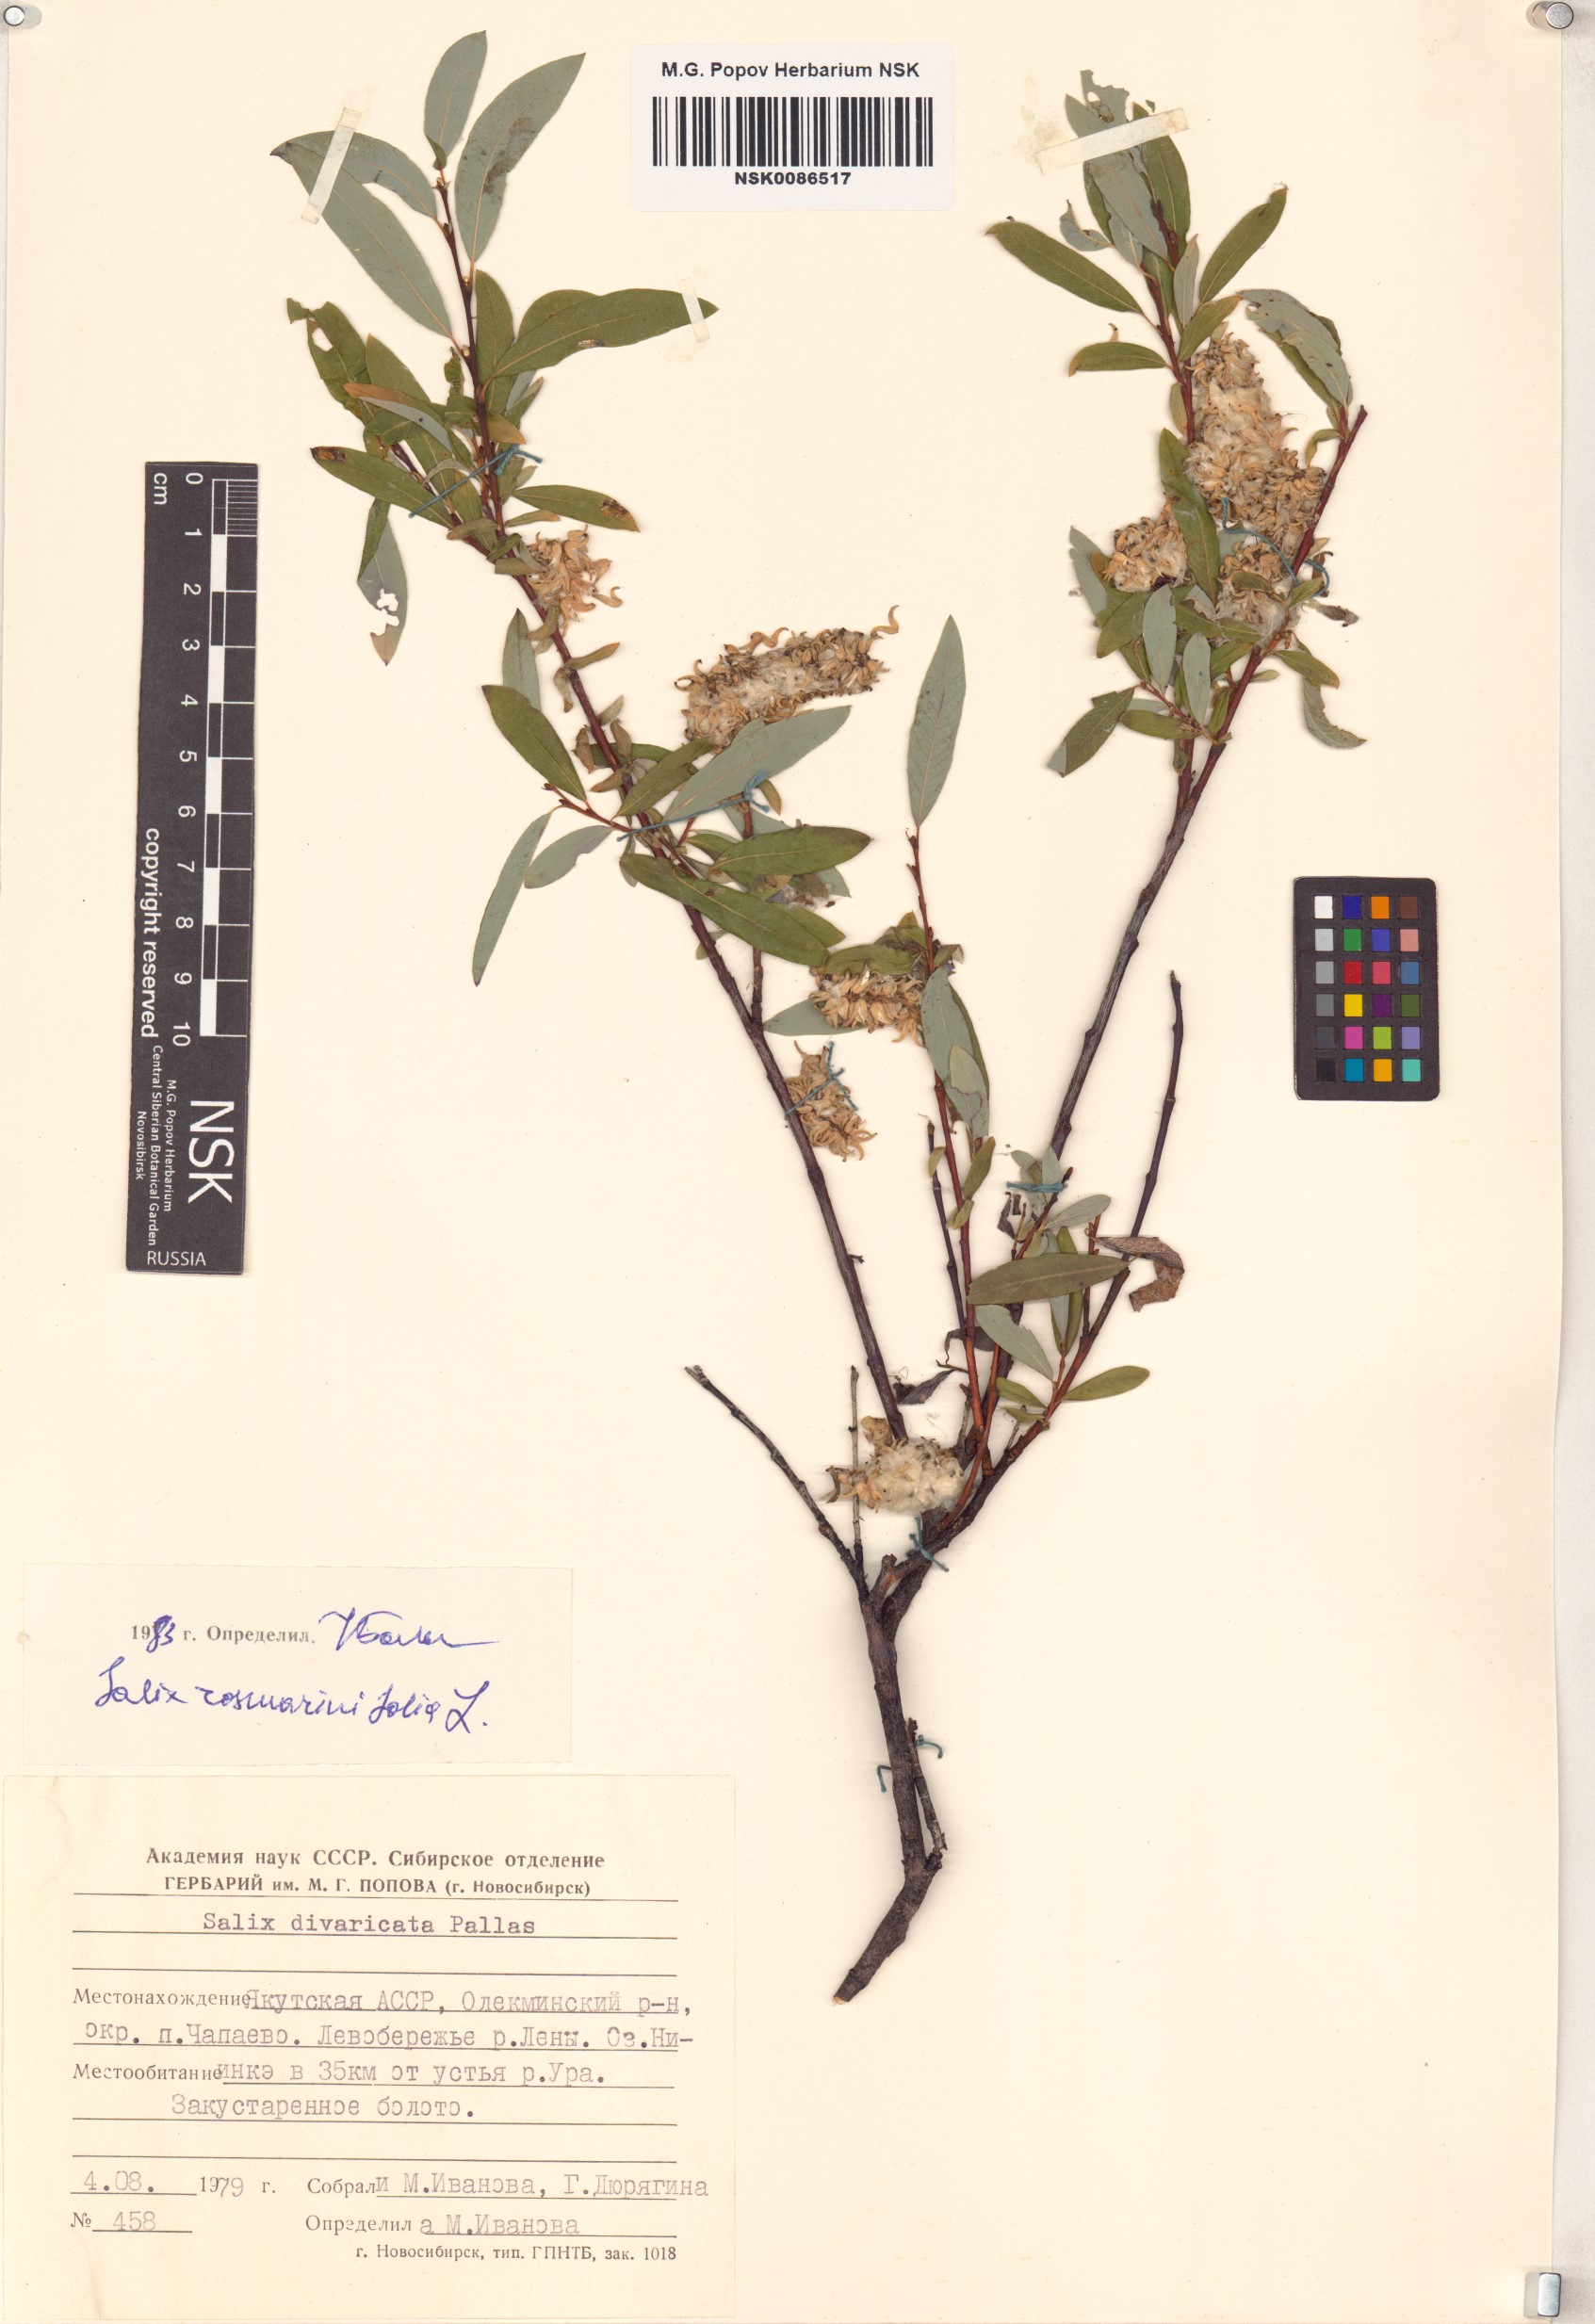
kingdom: Plantae
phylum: Tracheophyta
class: Magnoliopsida
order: Malpighiales
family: Salicaceae
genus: Salix
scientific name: Salix rosmarinifolia
